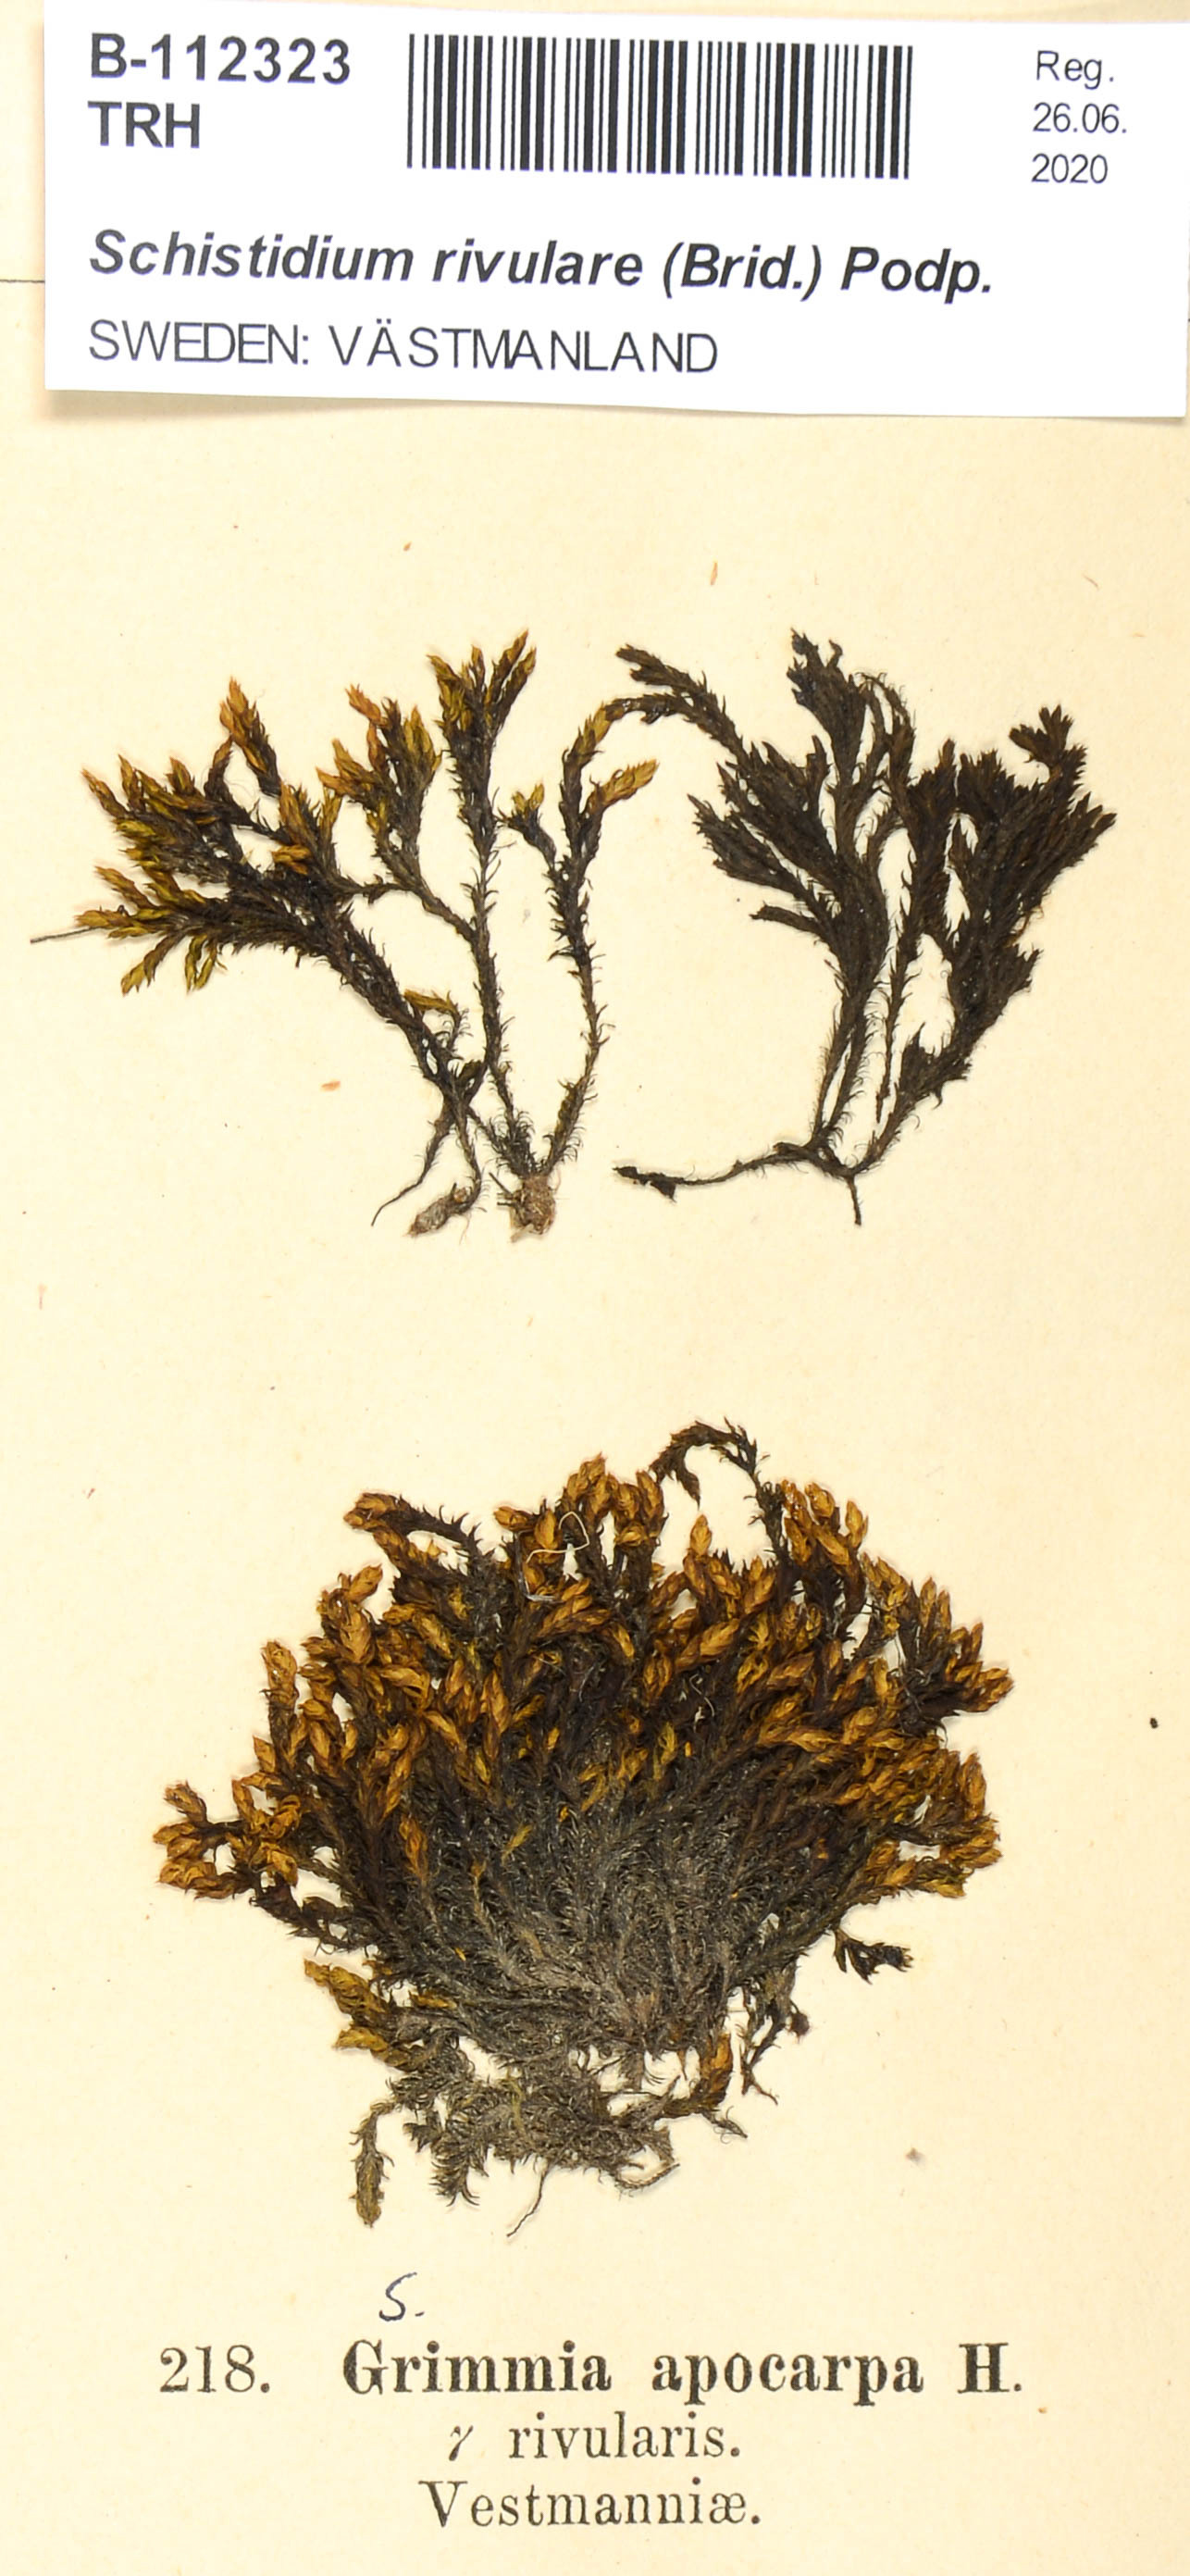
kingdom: Plantae
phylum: Bryophyta
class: Bryopsida
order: Grimmiales
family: Grimmiaceae
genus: Schistidium
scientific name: Schistidium rivulare
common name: River bloom moss
